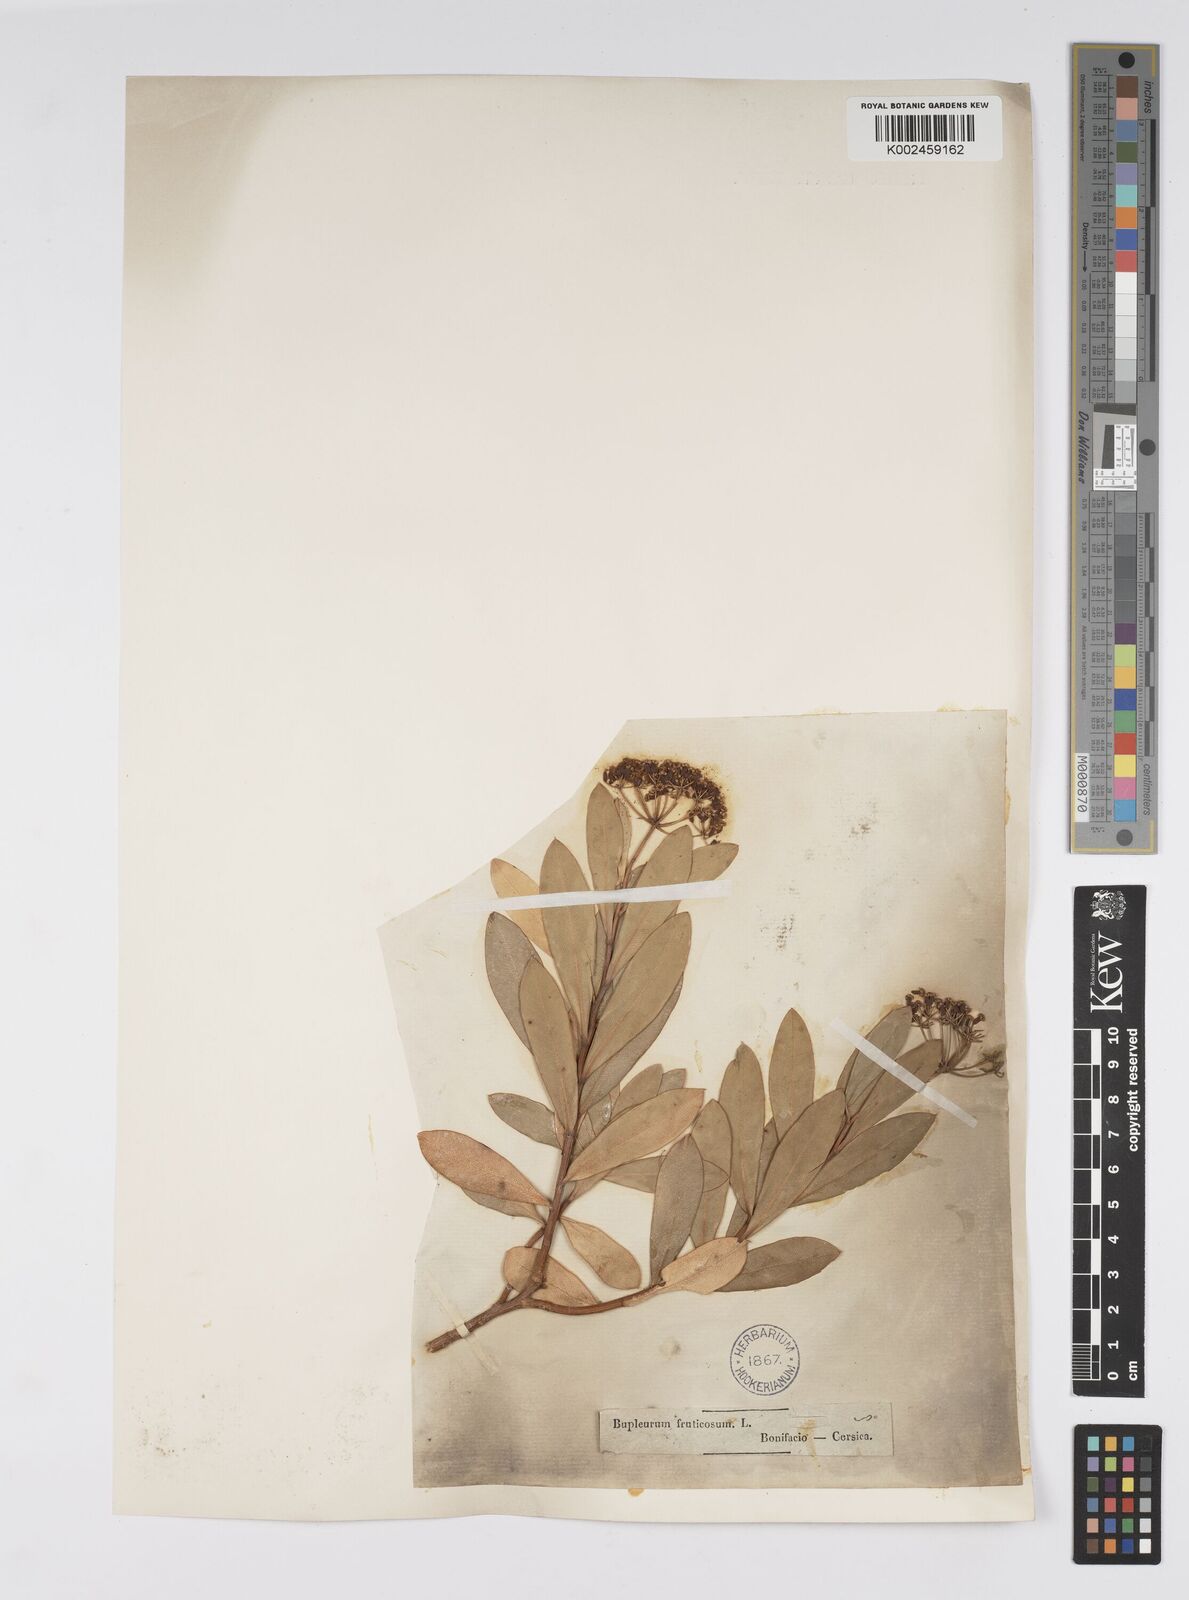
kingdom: Plantae
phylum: Tracheophyta
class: Magnoliopsida
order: Apiales
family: Apiaceae
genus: Bupleurum
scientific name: Bupleurum fruticosum
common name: Shrubby hare's-ear
